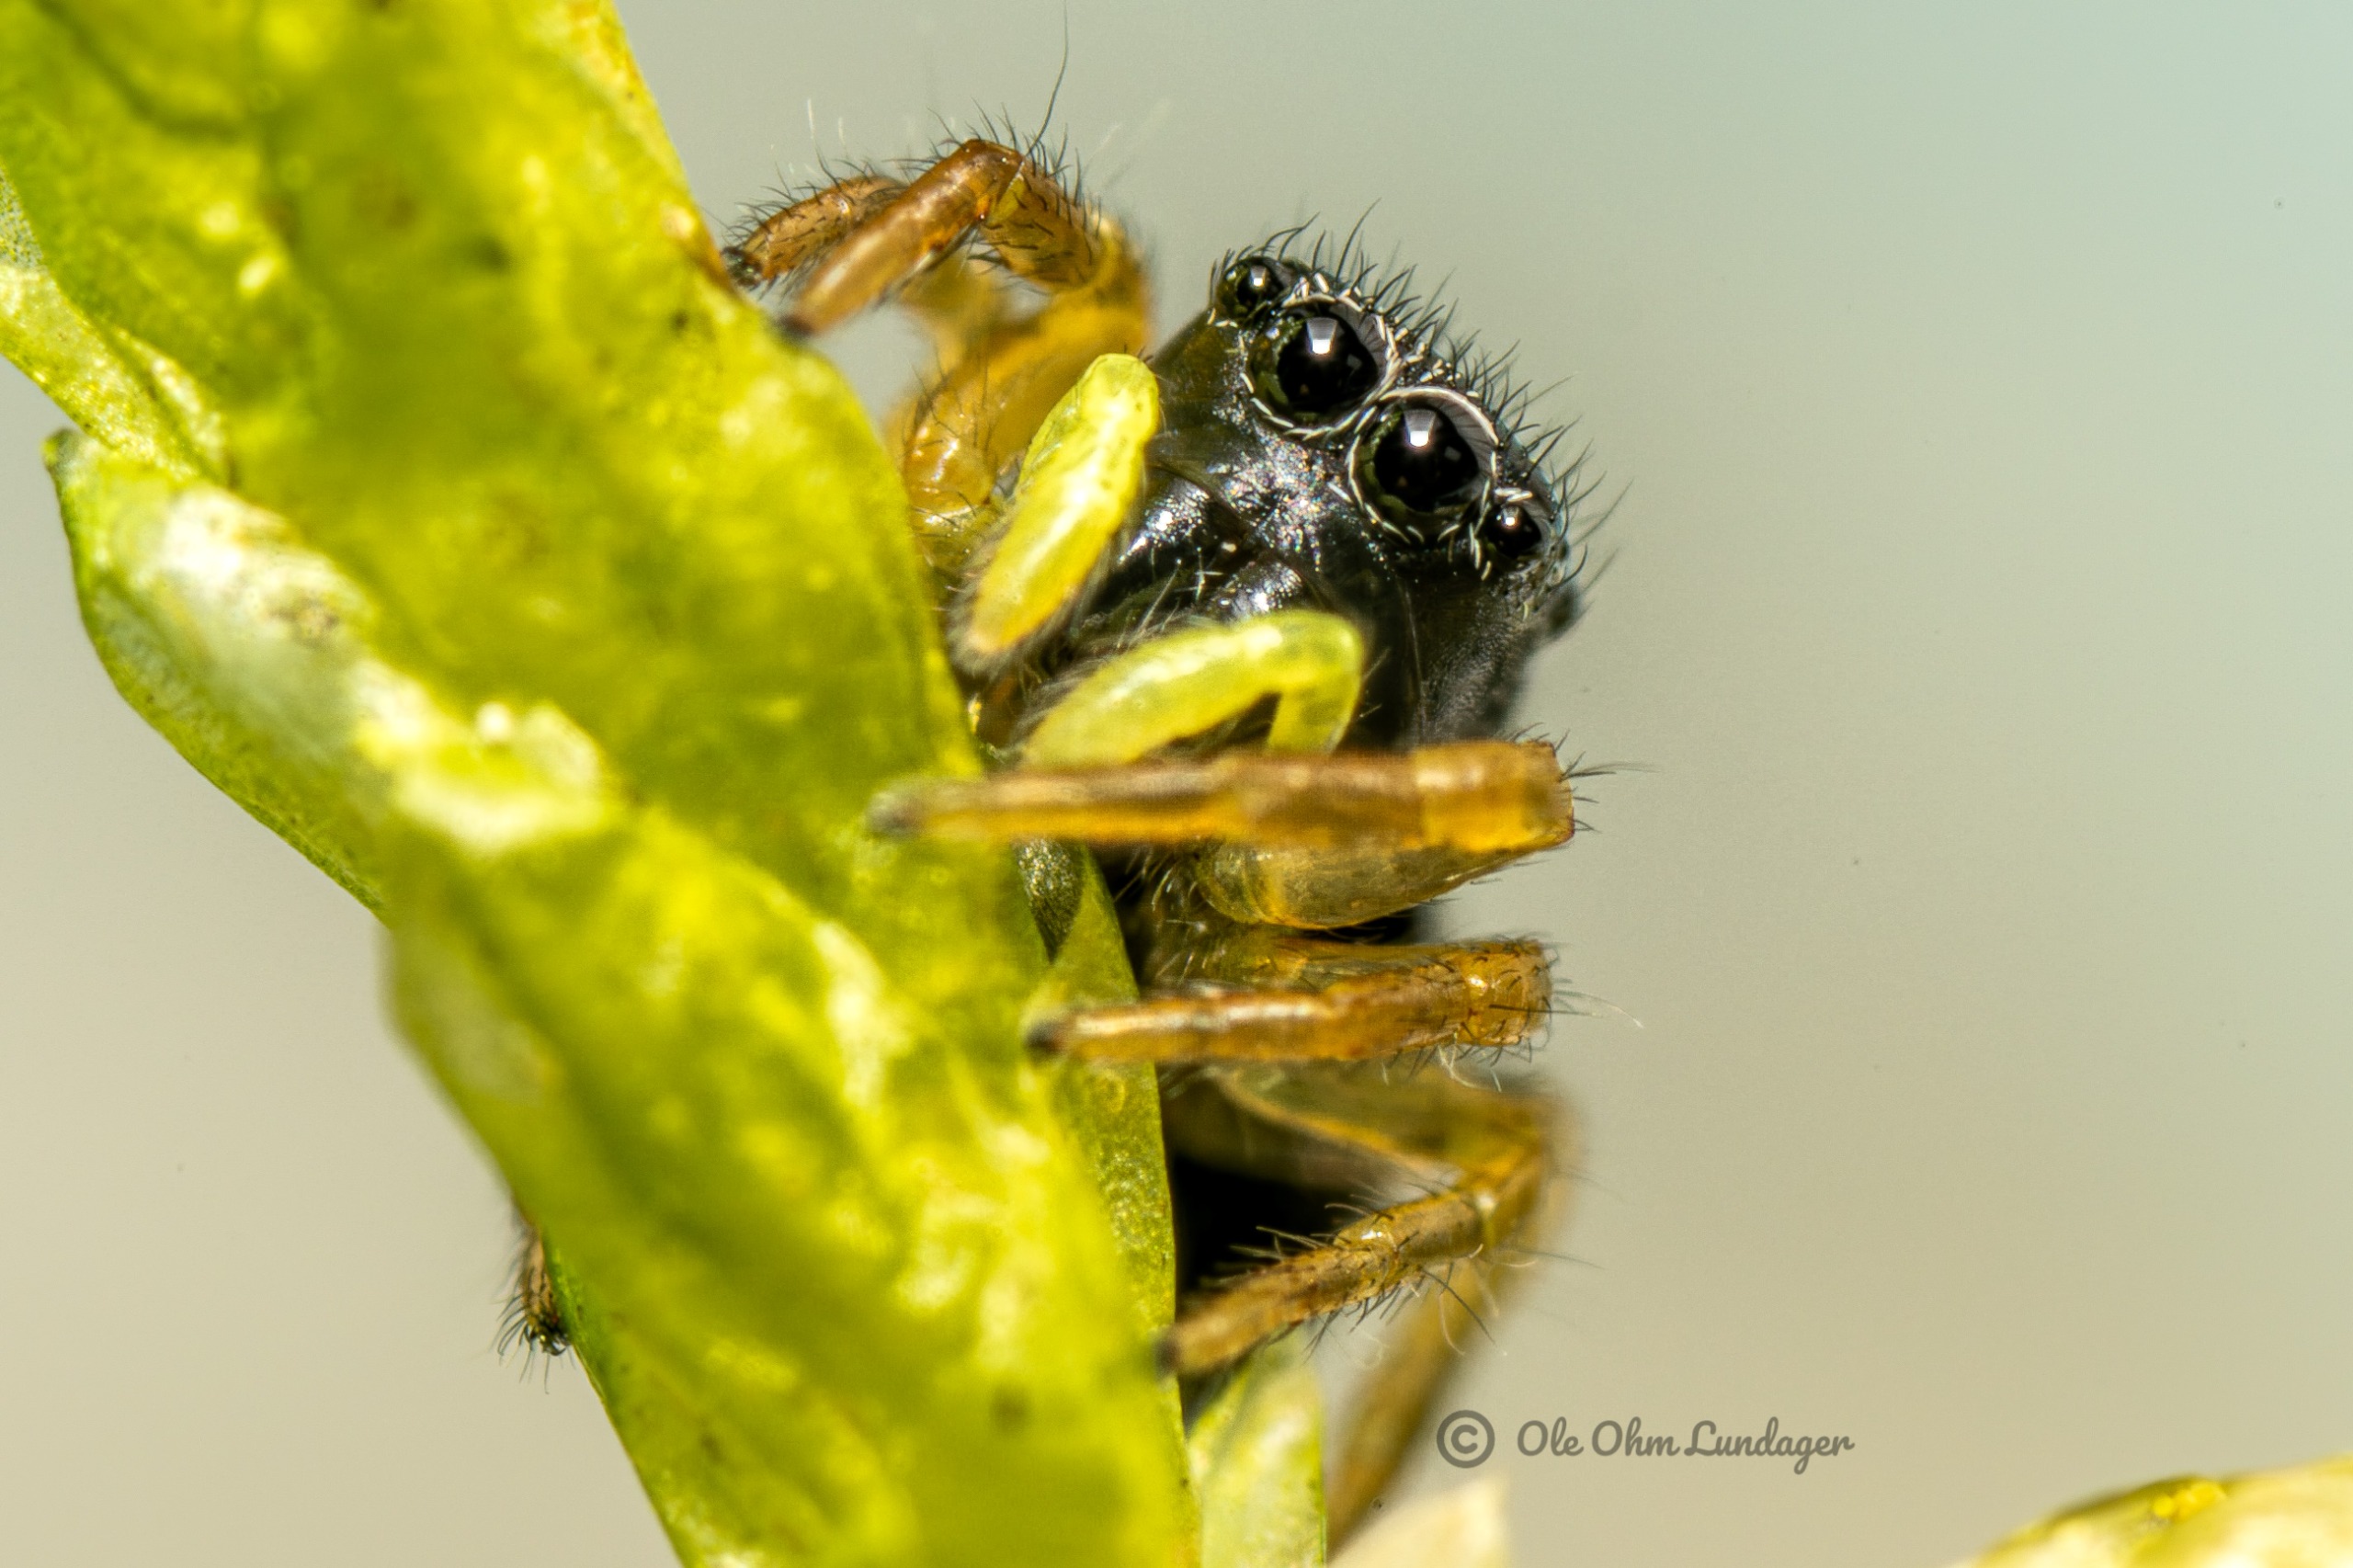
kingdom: Animalia
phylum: Arthropoda
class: Arachnida
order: Araneae
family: Salticidae
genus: Heliophanus
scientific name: Heliophanus
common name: Sortspringerslægten
